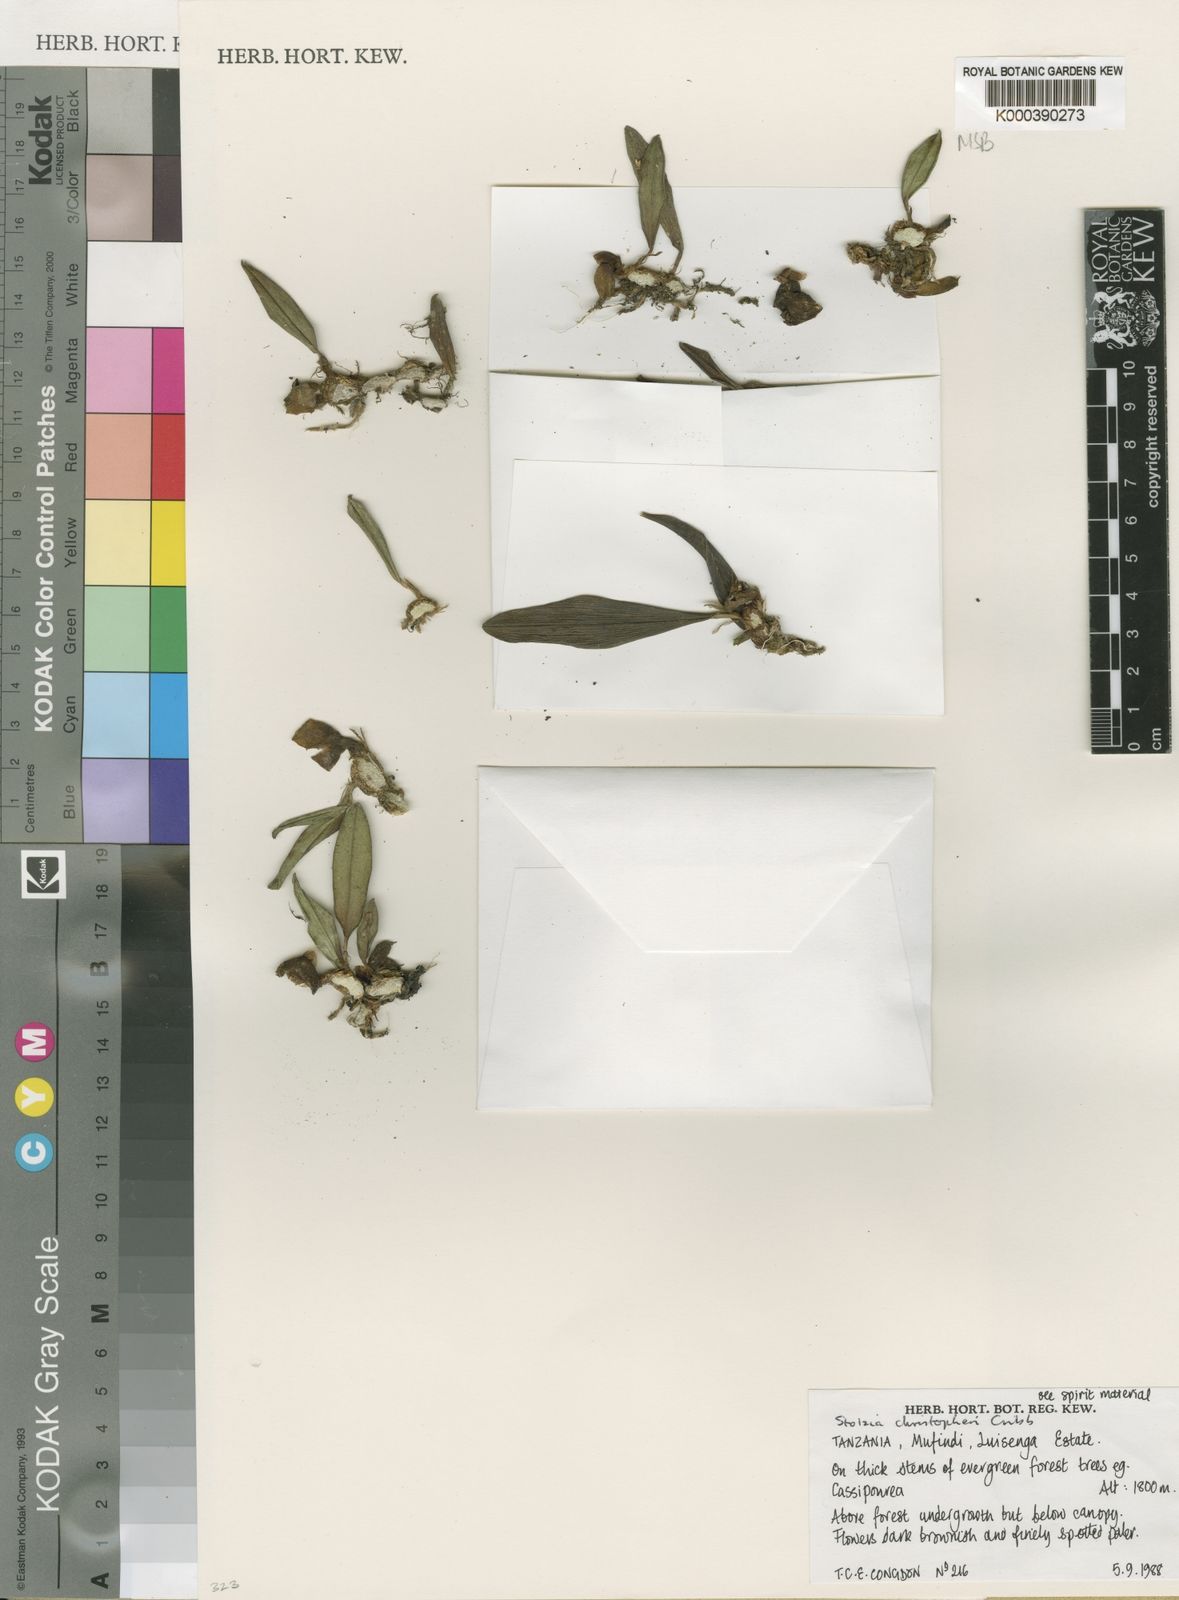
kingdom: Plantae
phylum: Tracheophyta
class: Liliopsida
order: Asparagales
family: Orchidaceae
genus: Porpax
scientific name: Porpax christopheri
